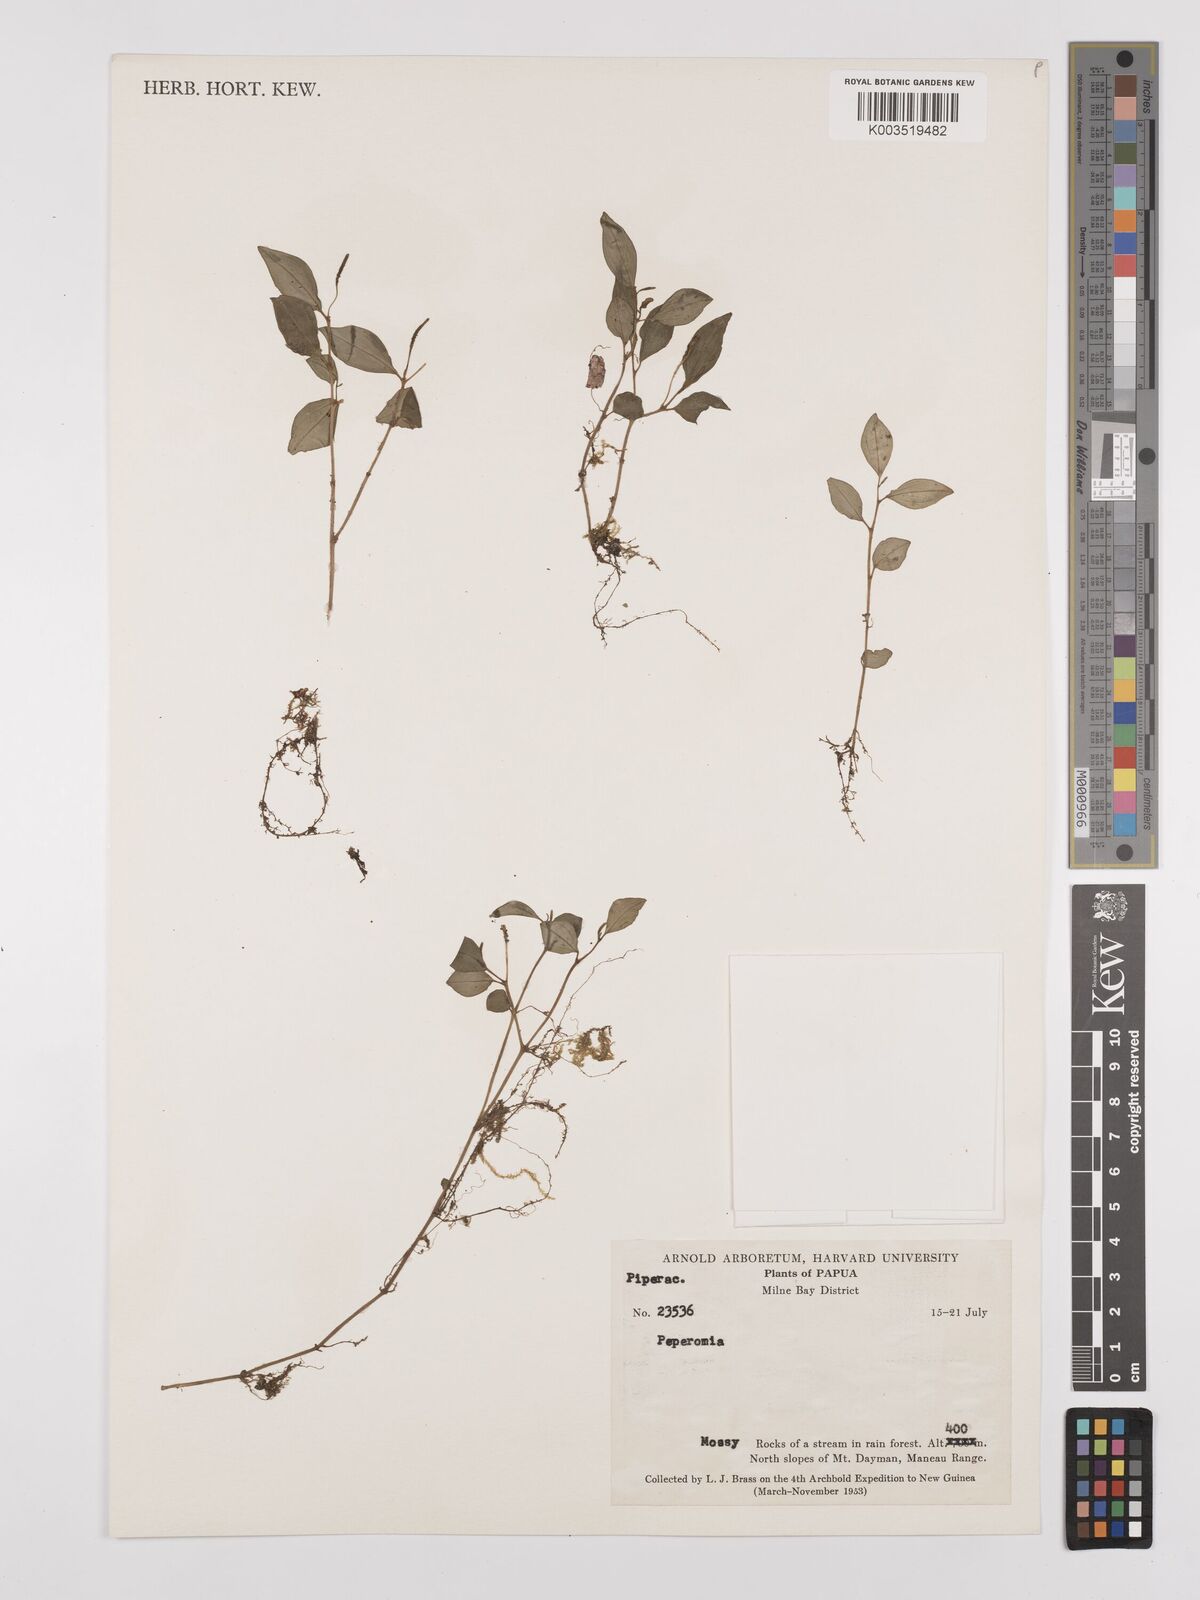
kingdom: Plantae
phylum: Tracheophyta
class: Magnoliopsida
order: Piperales
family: Piperaceae
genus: Peperomia
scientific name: Peperomia
